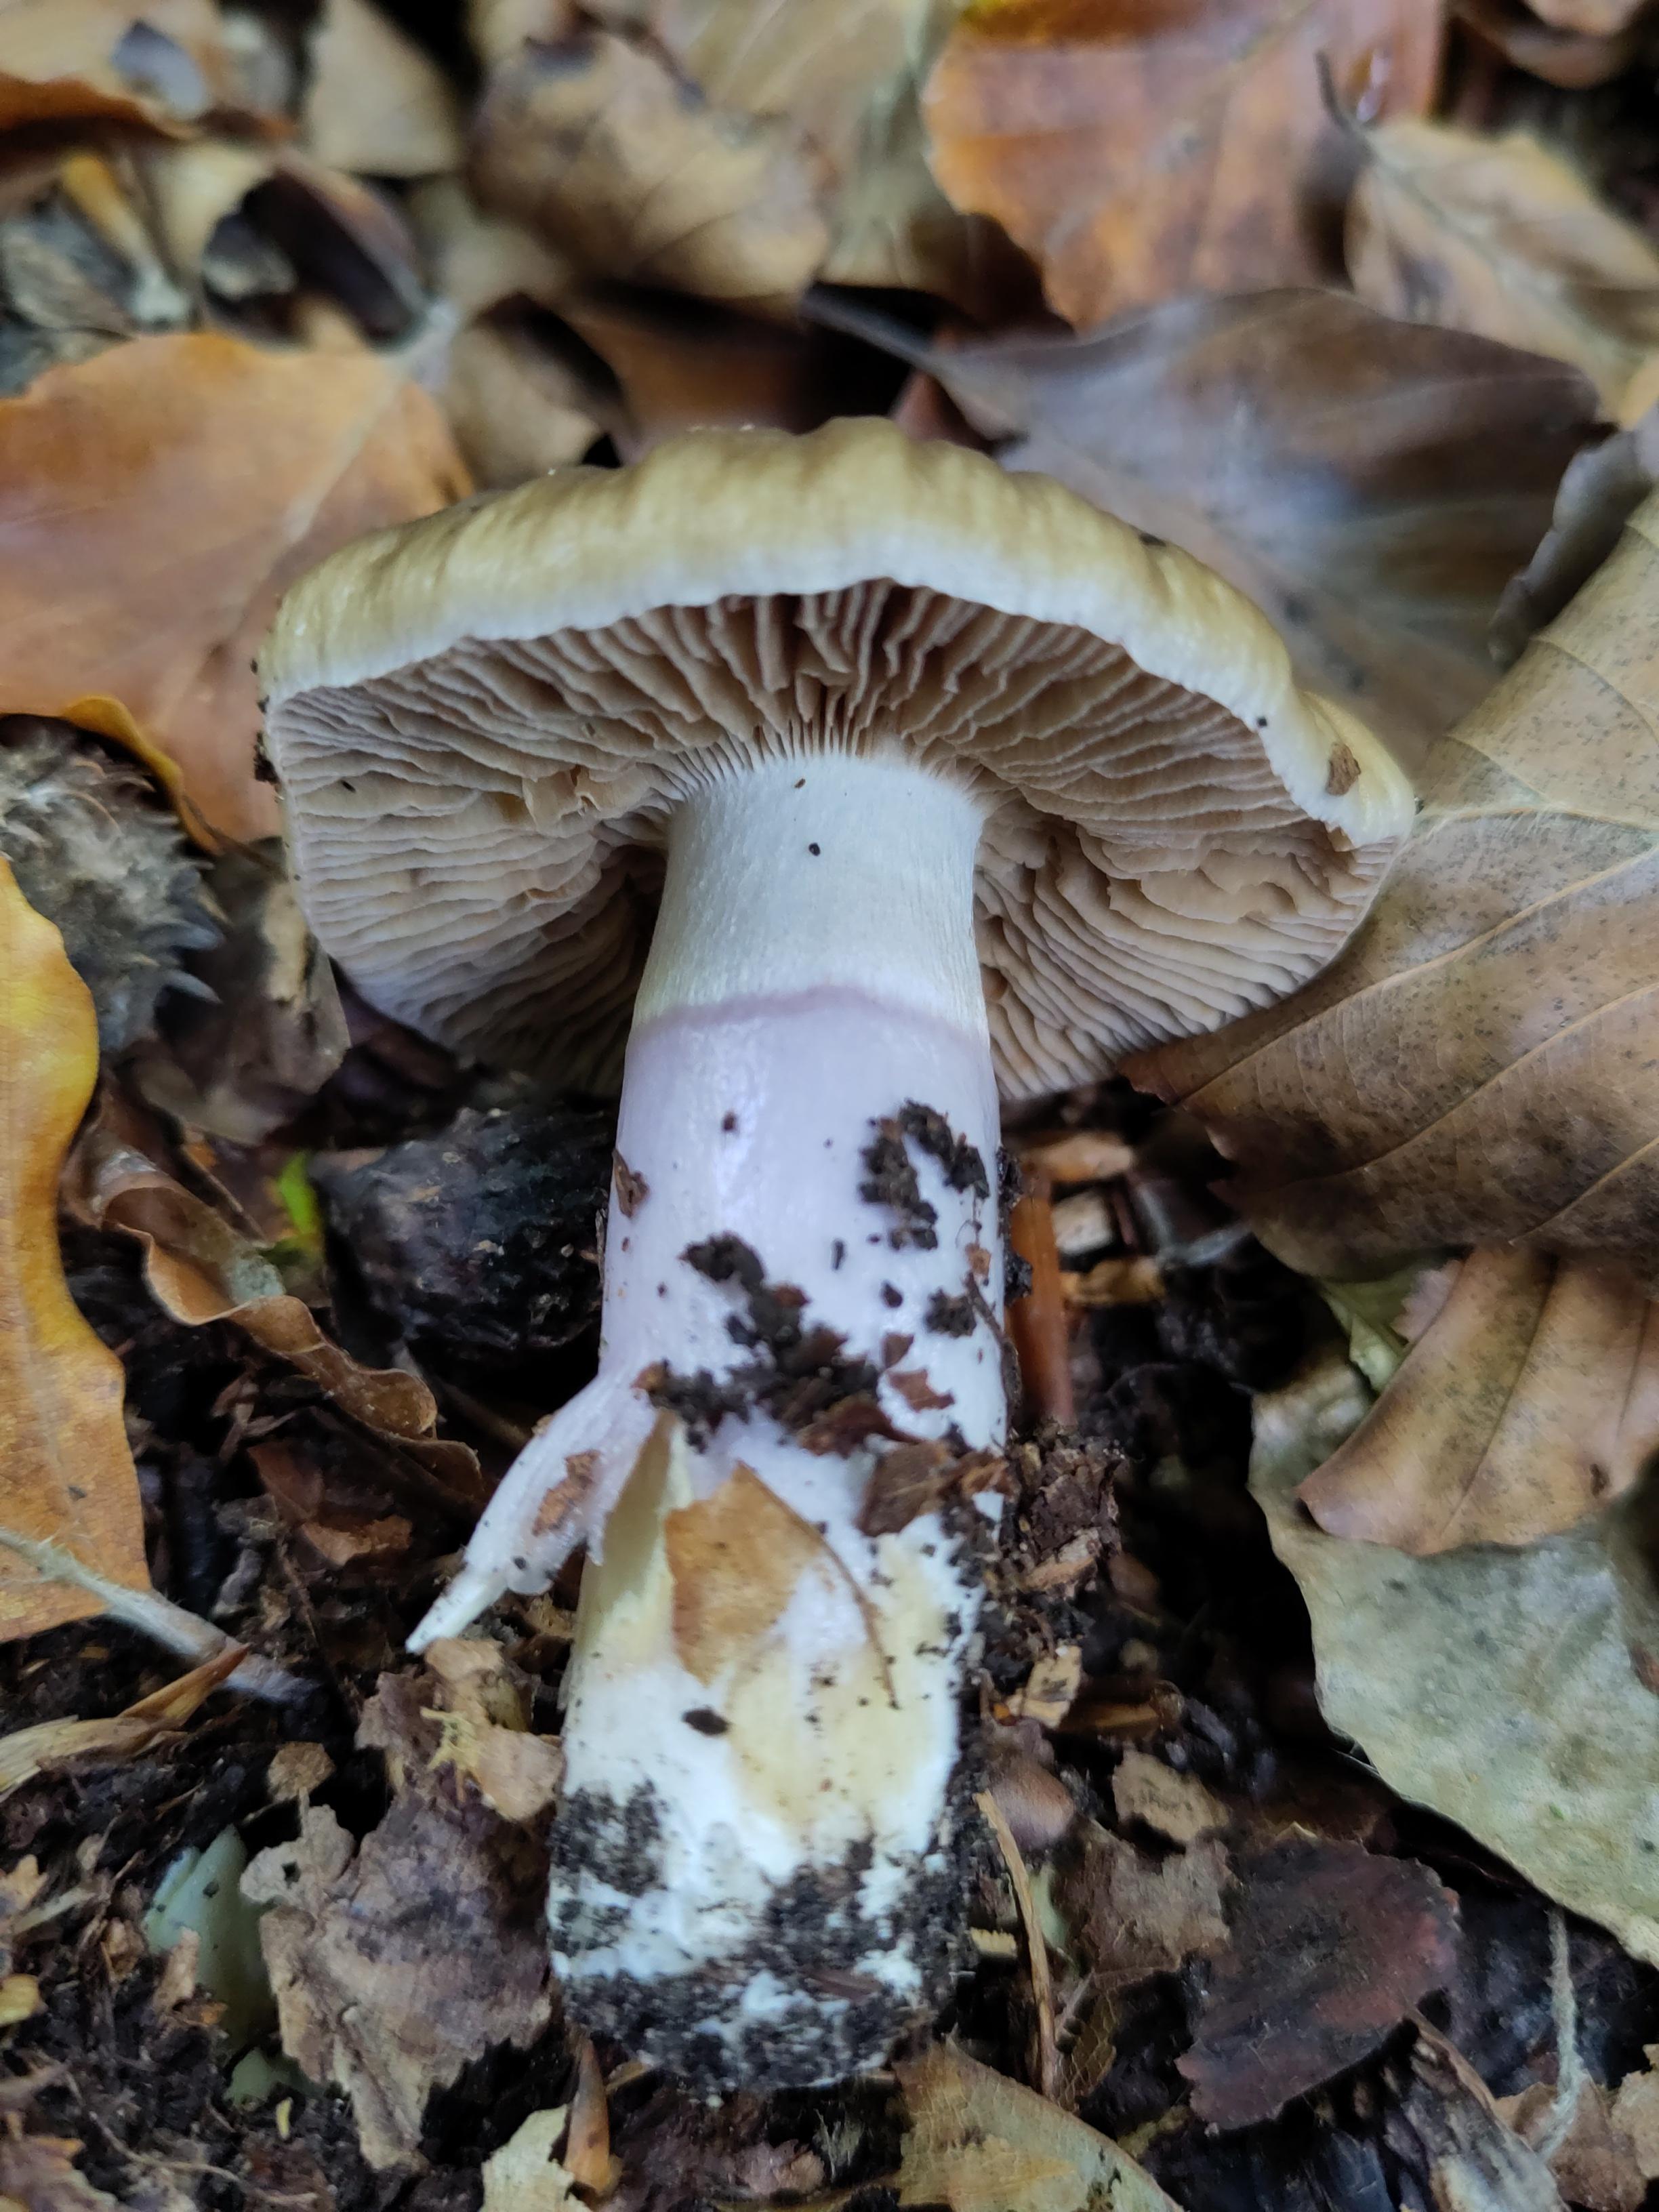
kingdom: Fungi
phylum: Basidiomycota
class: Agaricomycetes
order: Agaricales
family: Cortinariaceae
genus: Cortinarius
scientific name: Cortinarius elatior
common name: høj slørhat
